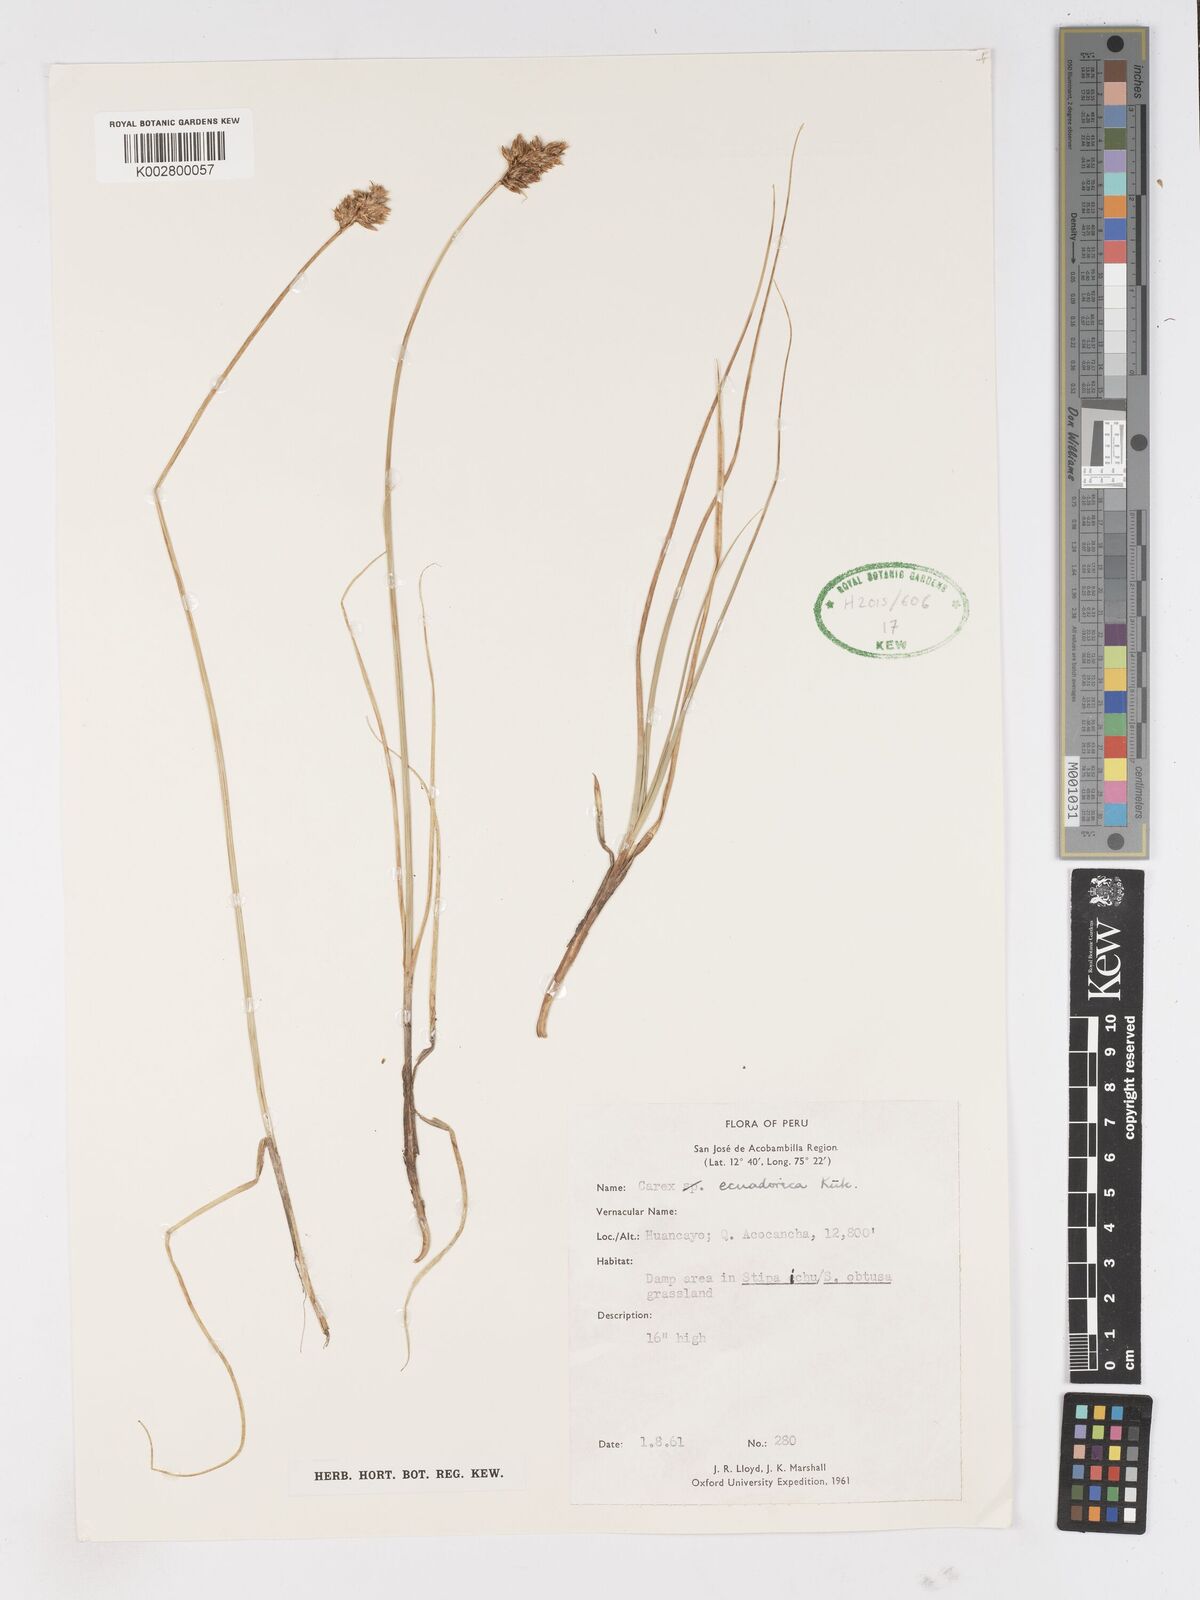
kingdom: Plantae
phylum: Tracheophyta
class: Liliopsida
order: Poales
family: Cyperaceae
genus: Carex
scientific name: Carex ecuadorica
